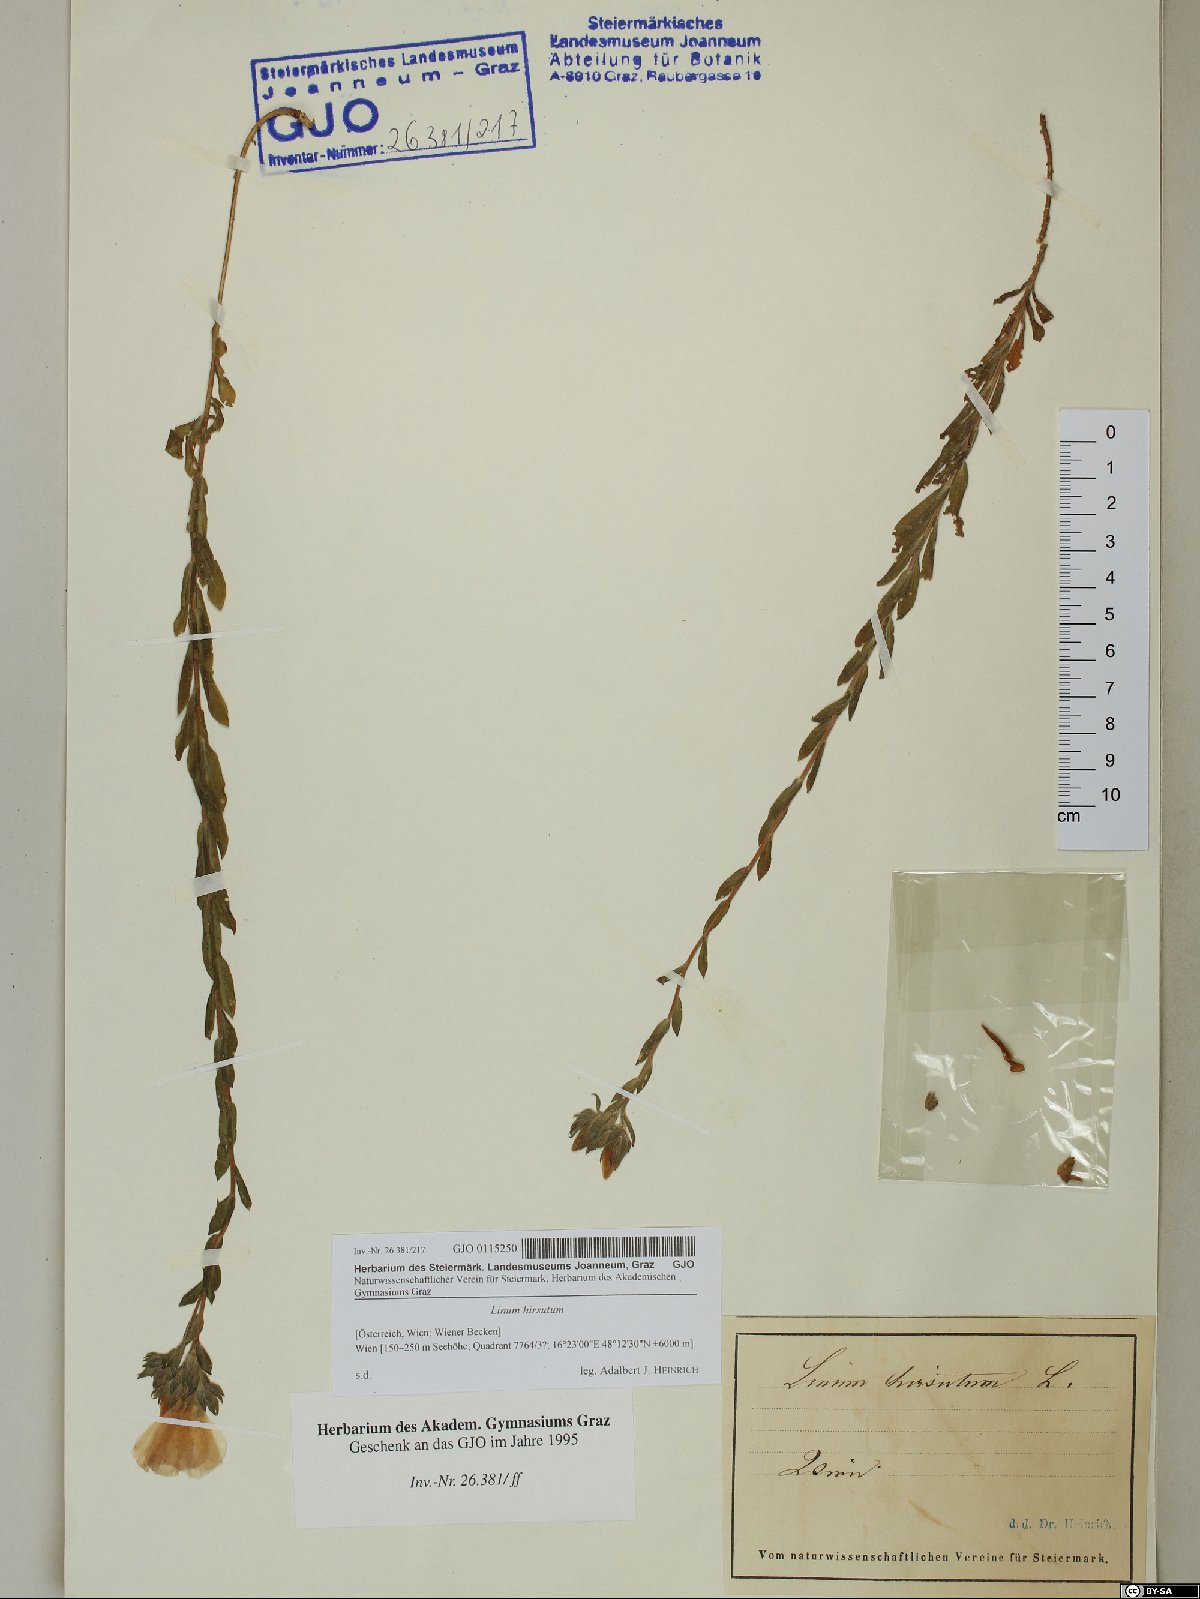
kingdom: Plantae
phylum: Tracheophyta
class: Magnoliopsida
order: Malpighiales
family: Linaceae
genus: Linum
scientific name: Linum hirsutum
